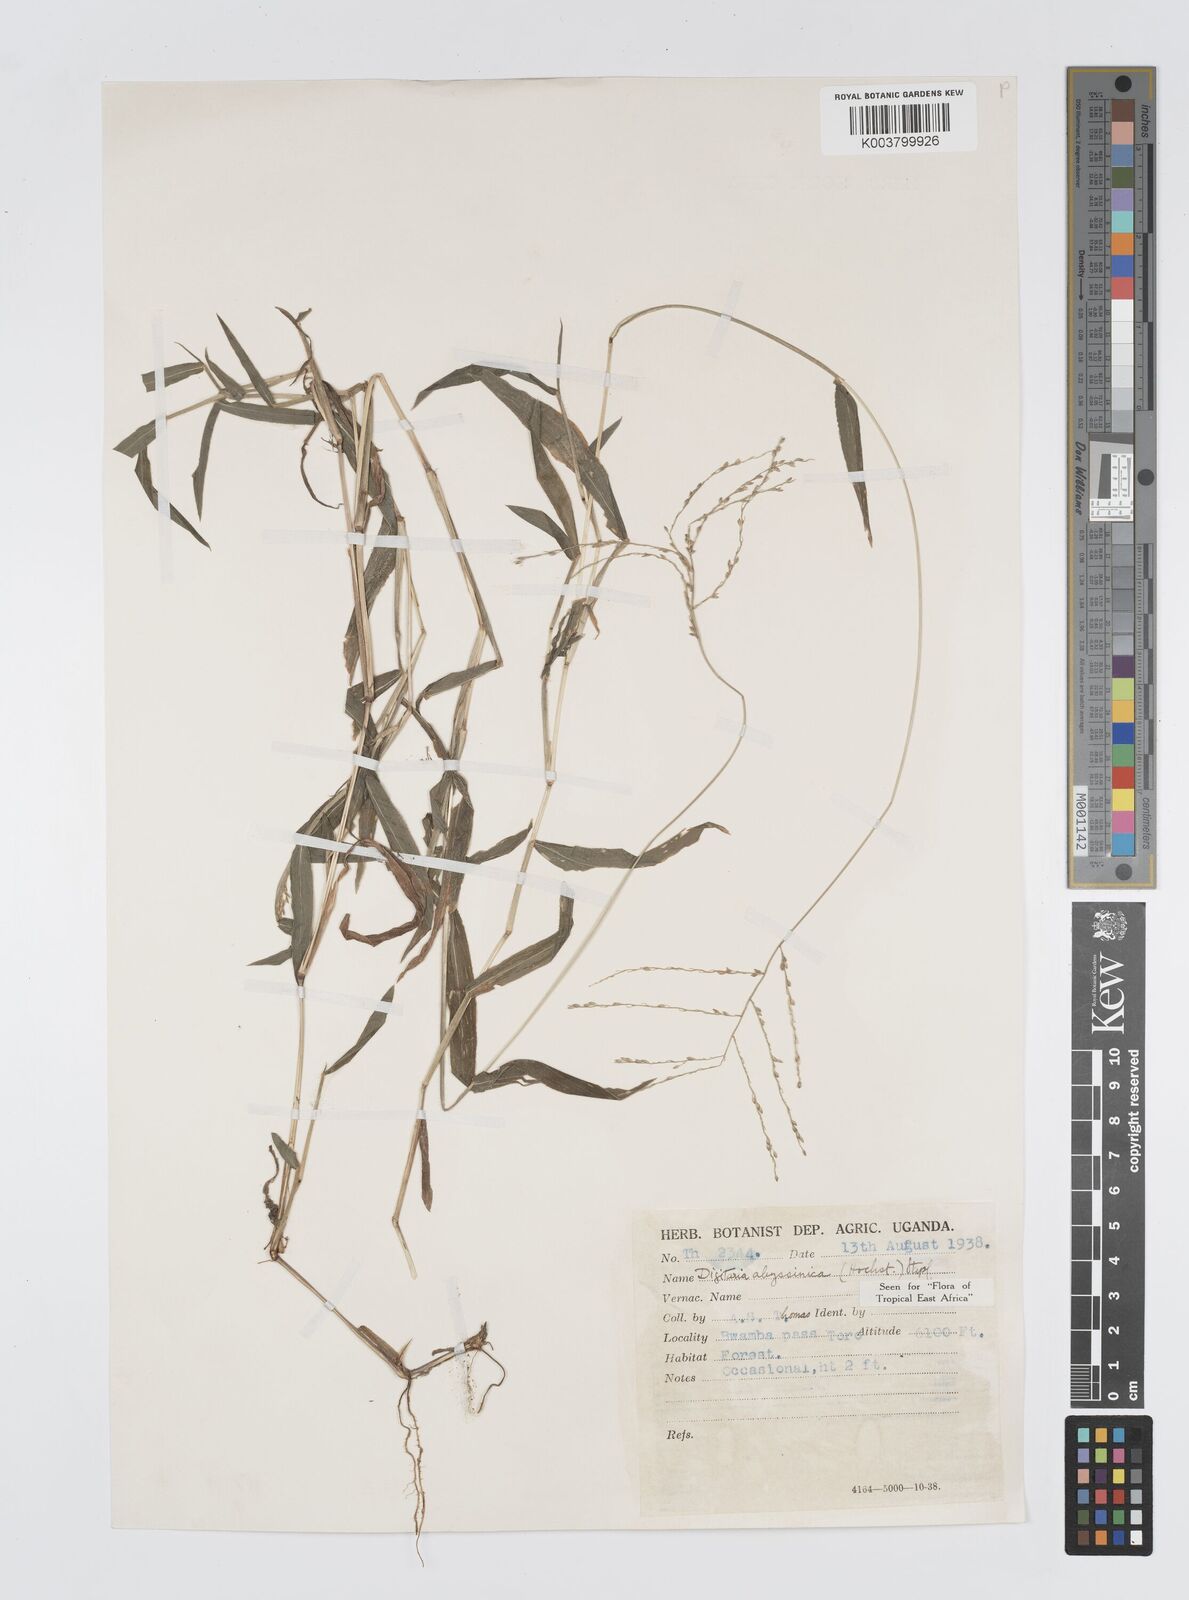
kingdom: Plantae
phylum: Tracheophyta
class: Liliopsida
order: Poales
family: Poaceae
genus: Digitaria
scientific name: Digitaria abyssinica
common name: African couchgrass
